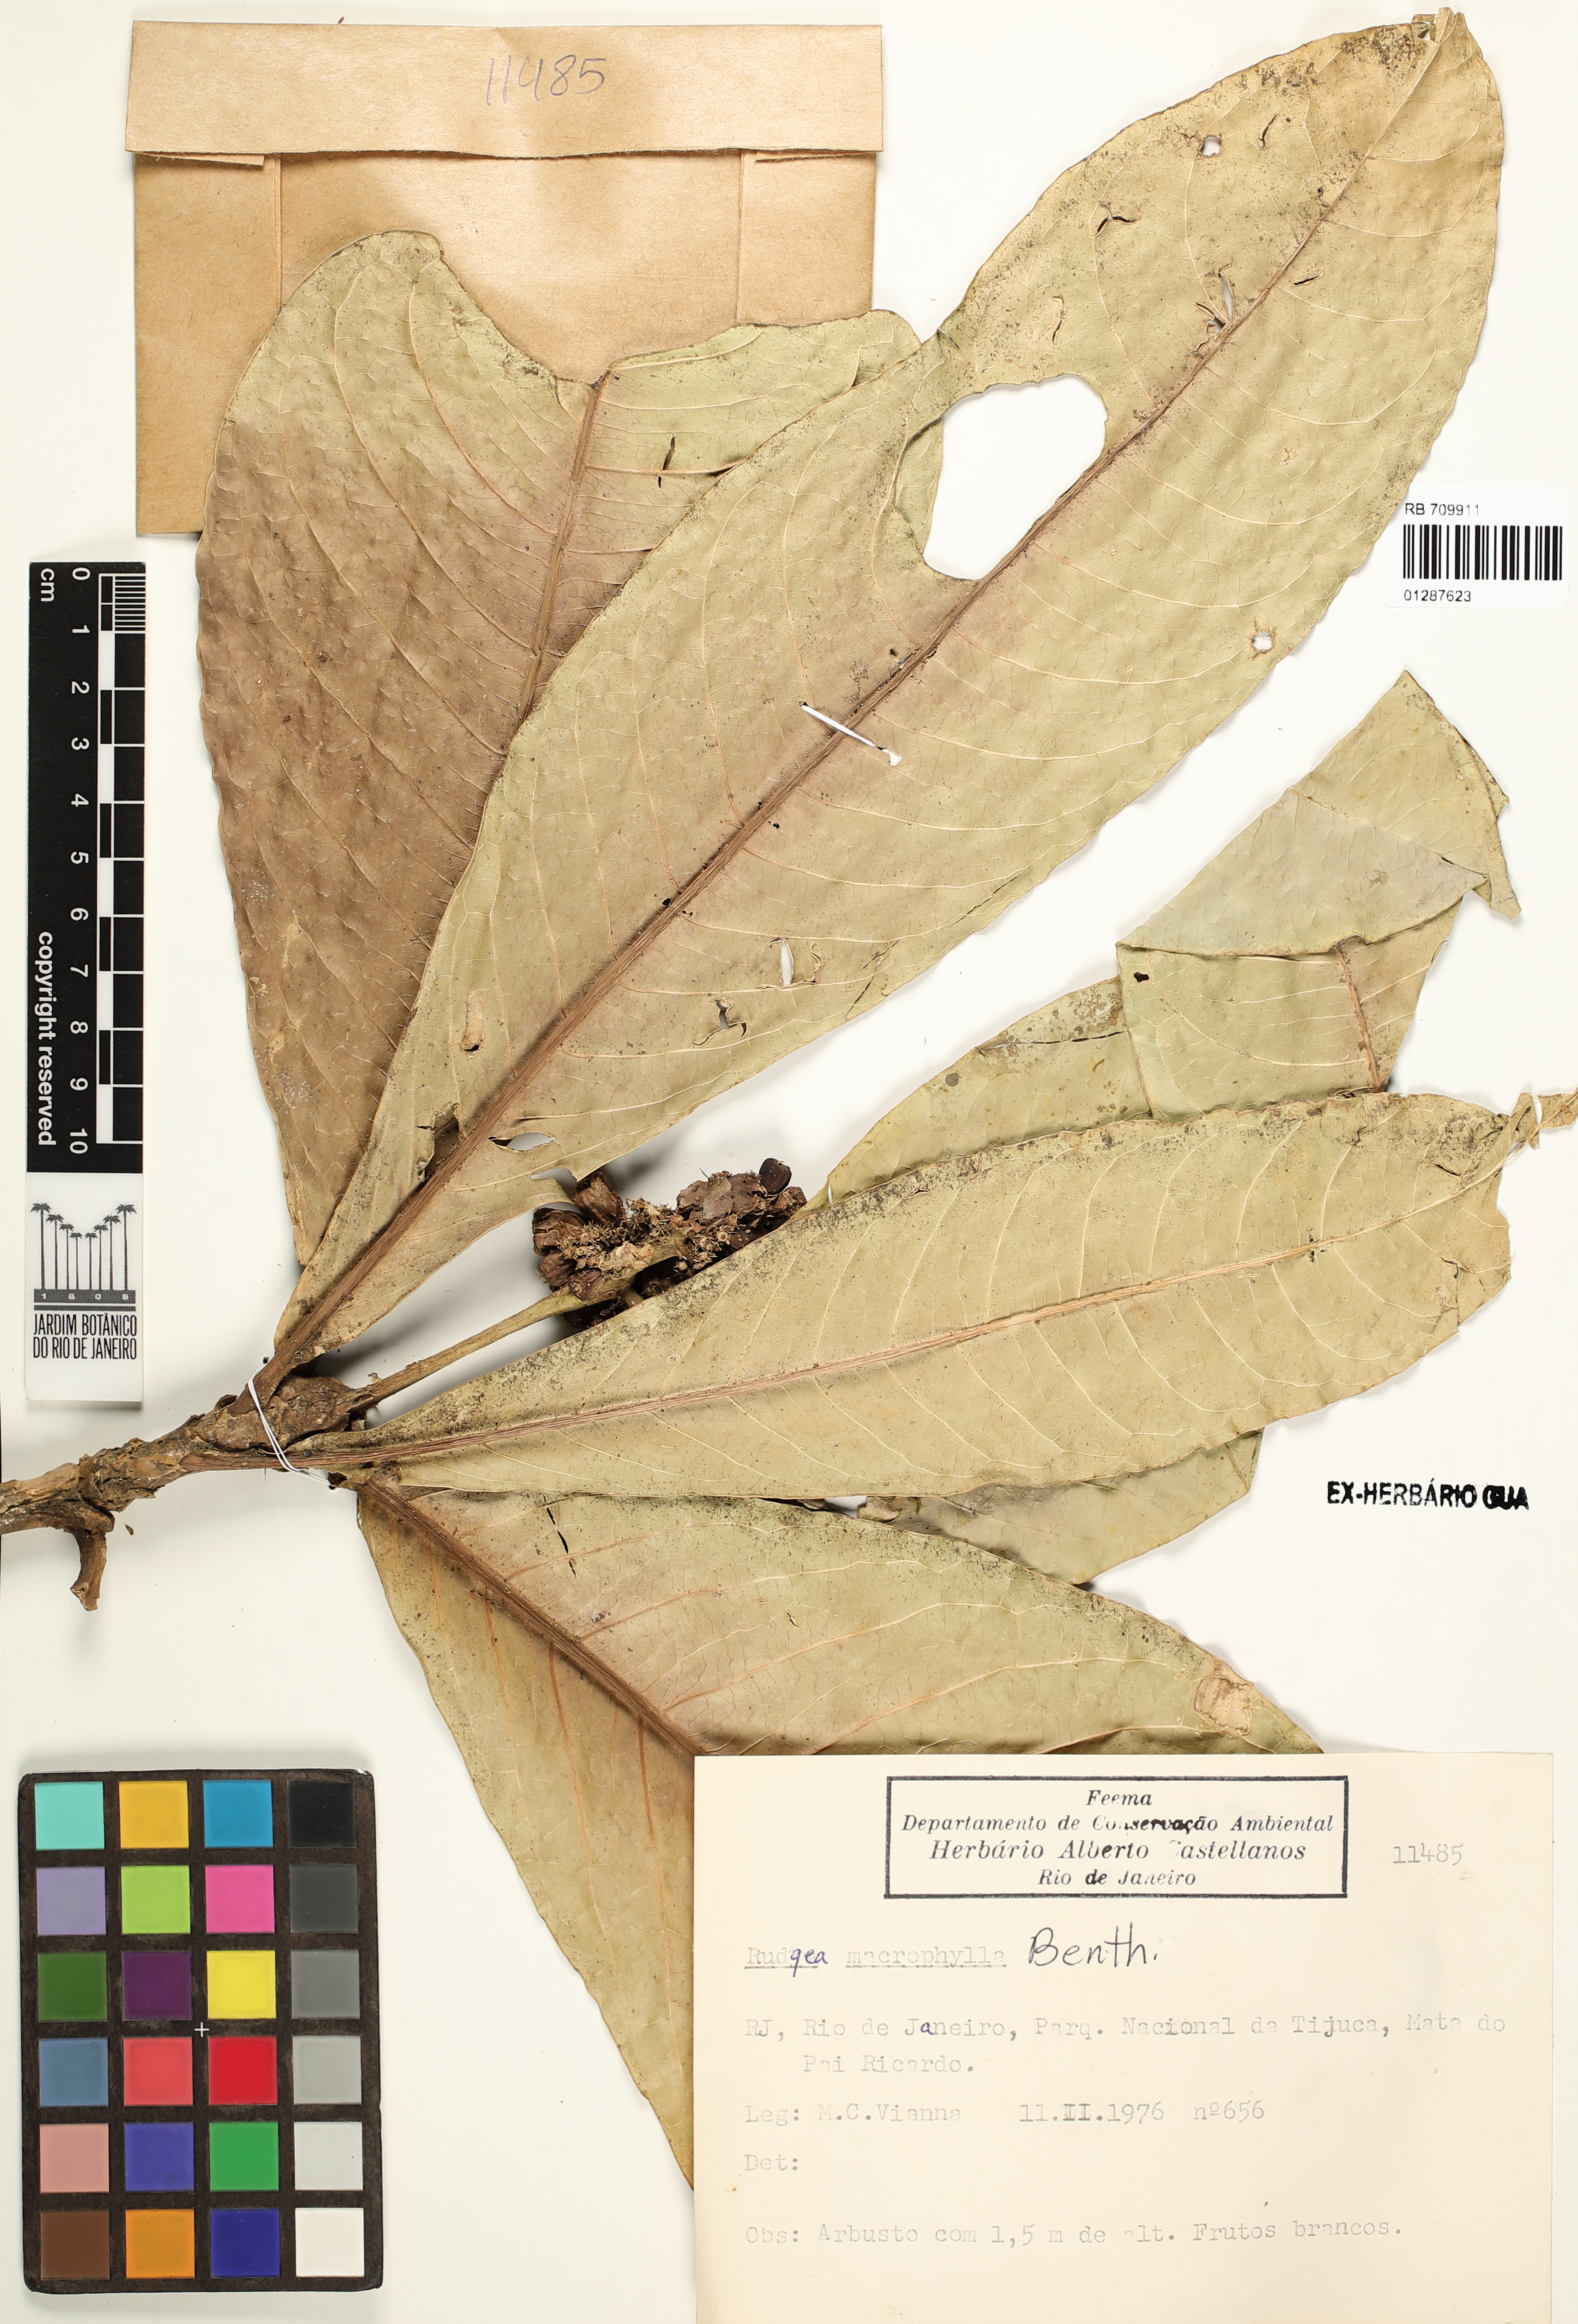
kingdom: Plantae
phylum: Tracheophyta
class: Magnoliopsida
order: Gentianales
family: Rubiaceae
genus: Rudgea
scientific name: Rudgea macrophylla
